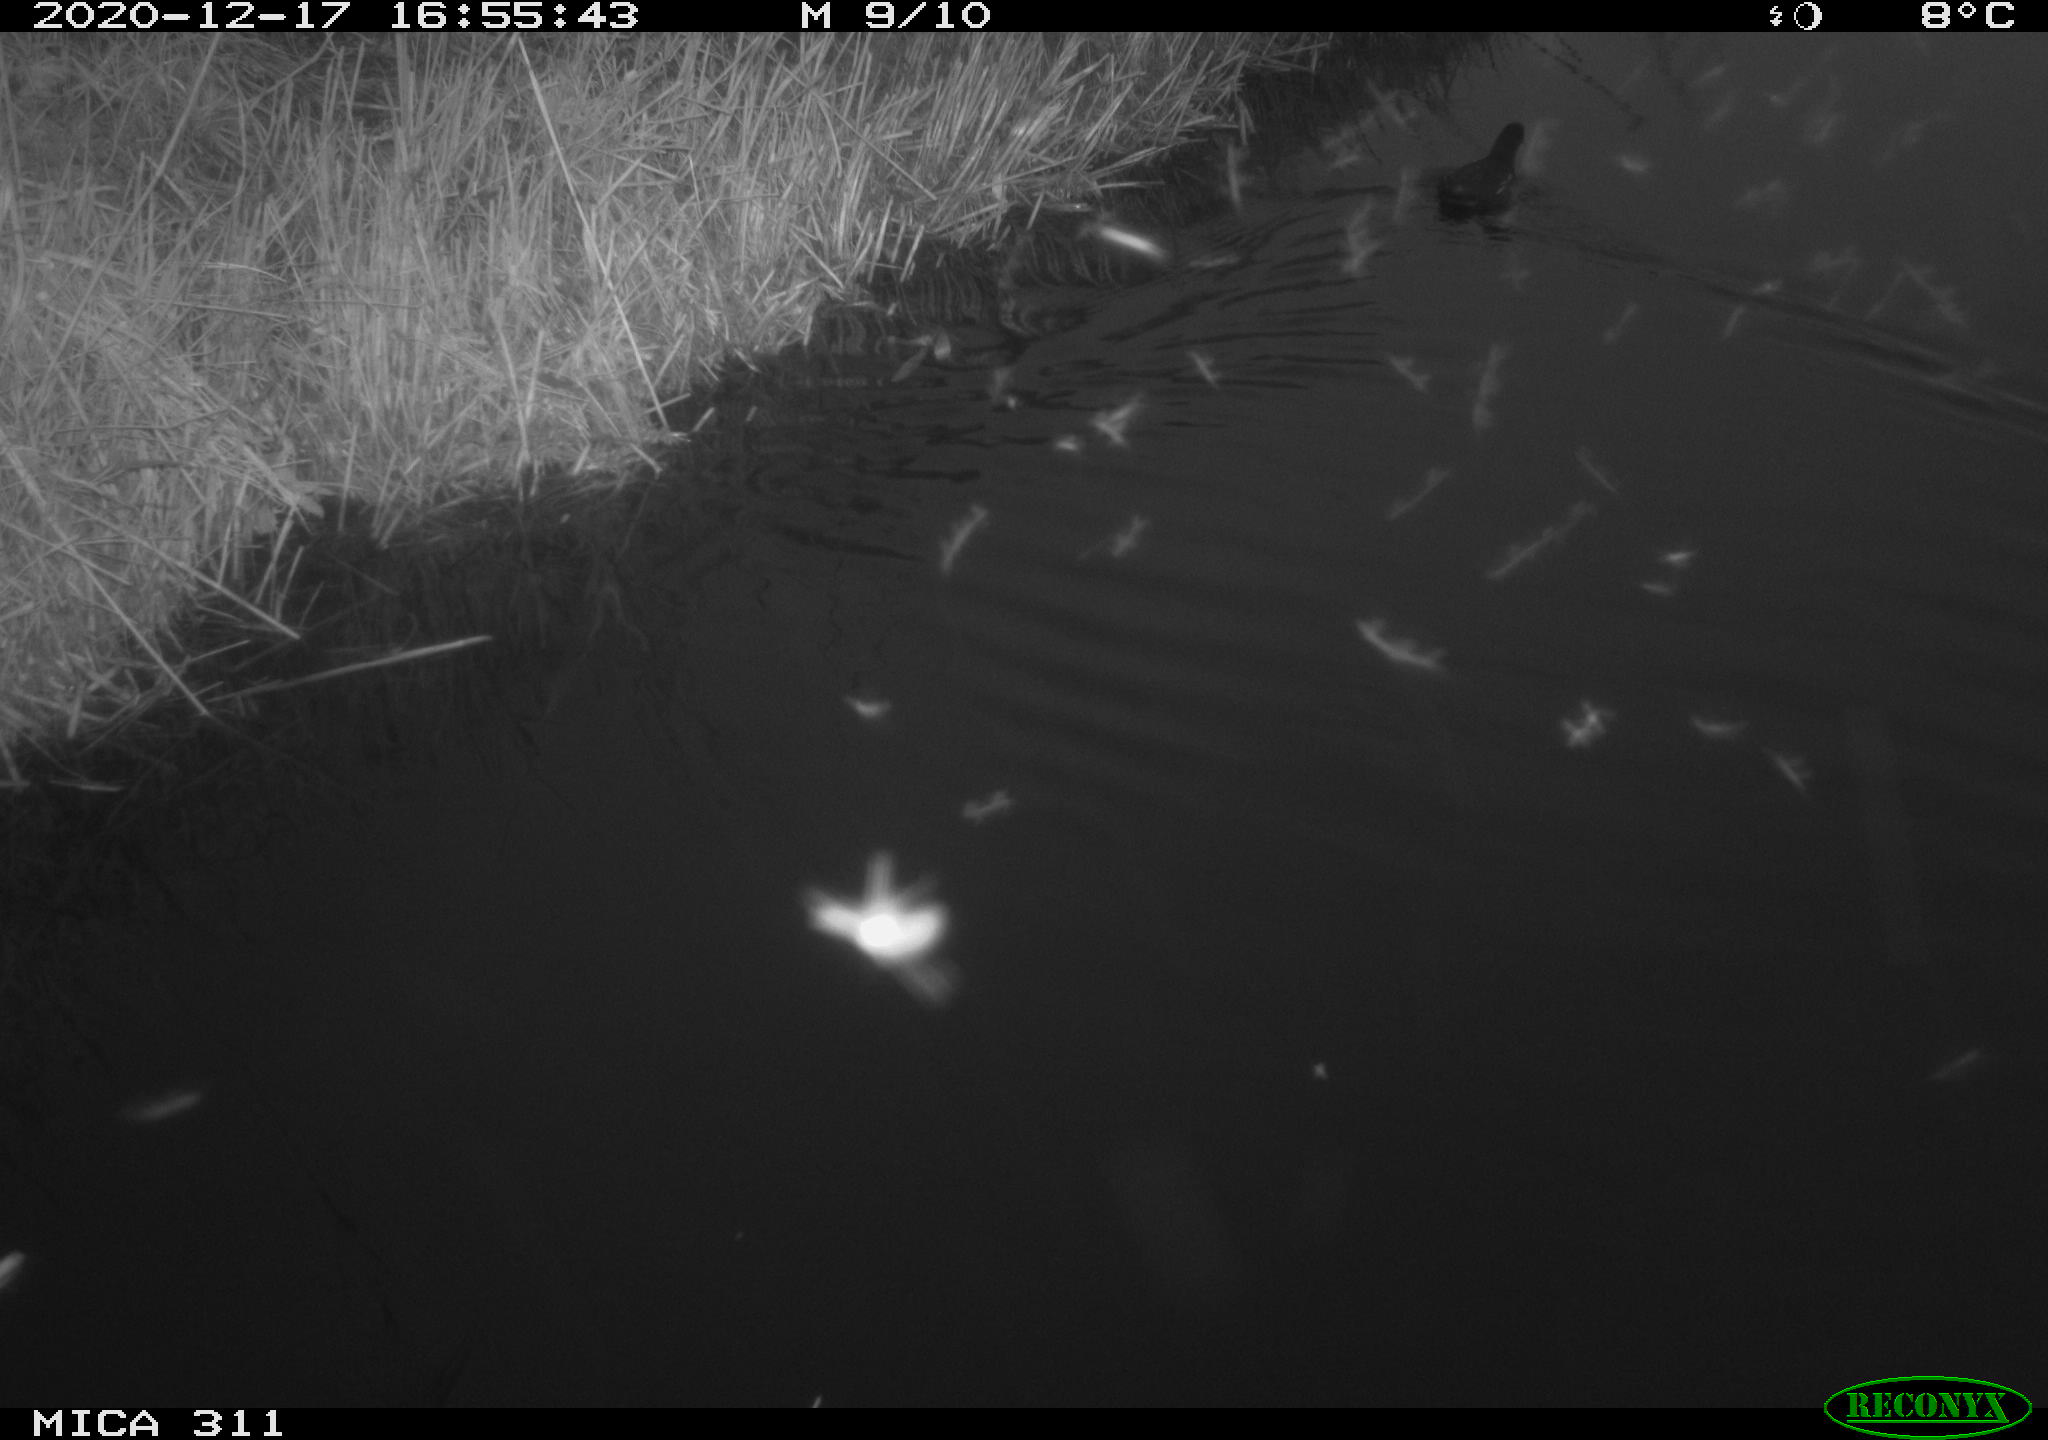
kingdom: Animalia
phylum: Chordata
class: Aves
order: Gruiformes
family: Rallidae
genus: Gallinula
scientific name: Gallinula chloropus
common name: Common moorhen
